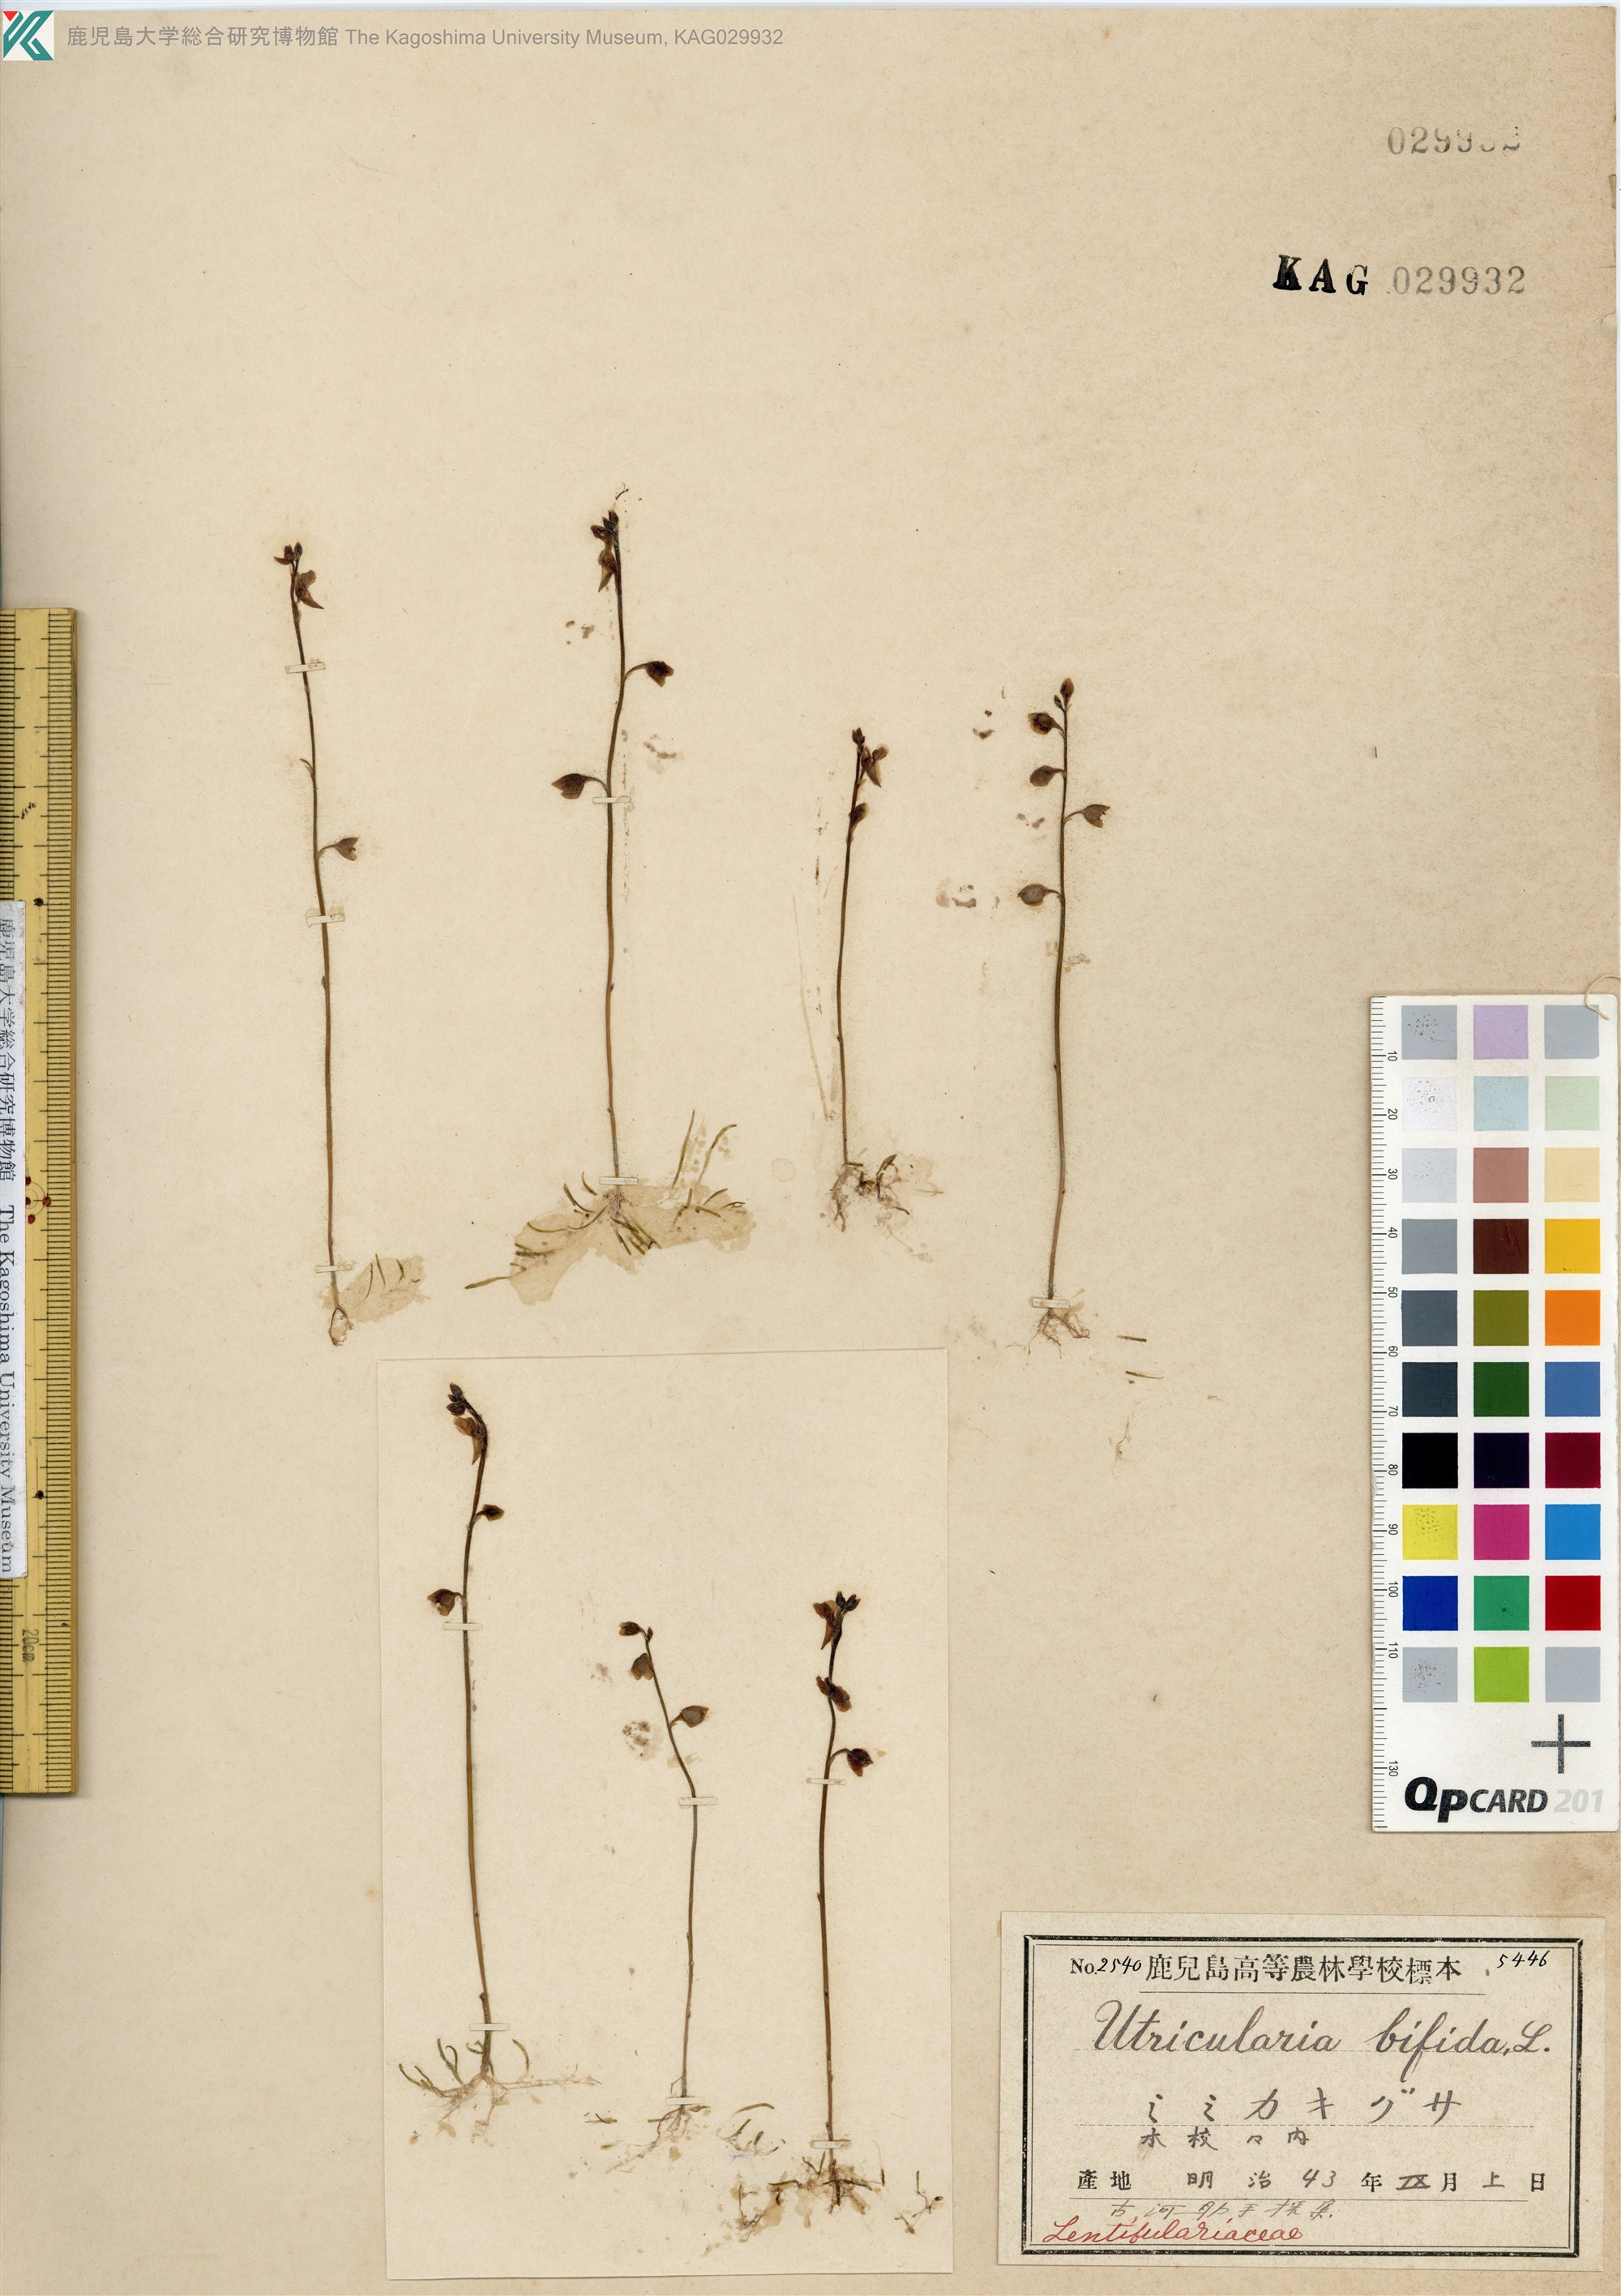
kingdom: Plantae
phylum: Tracheophyta
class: Magnoliopsida
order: Lamiales
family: Lentibulariaceae
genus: Utricularia
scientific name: Utricularia bifida
